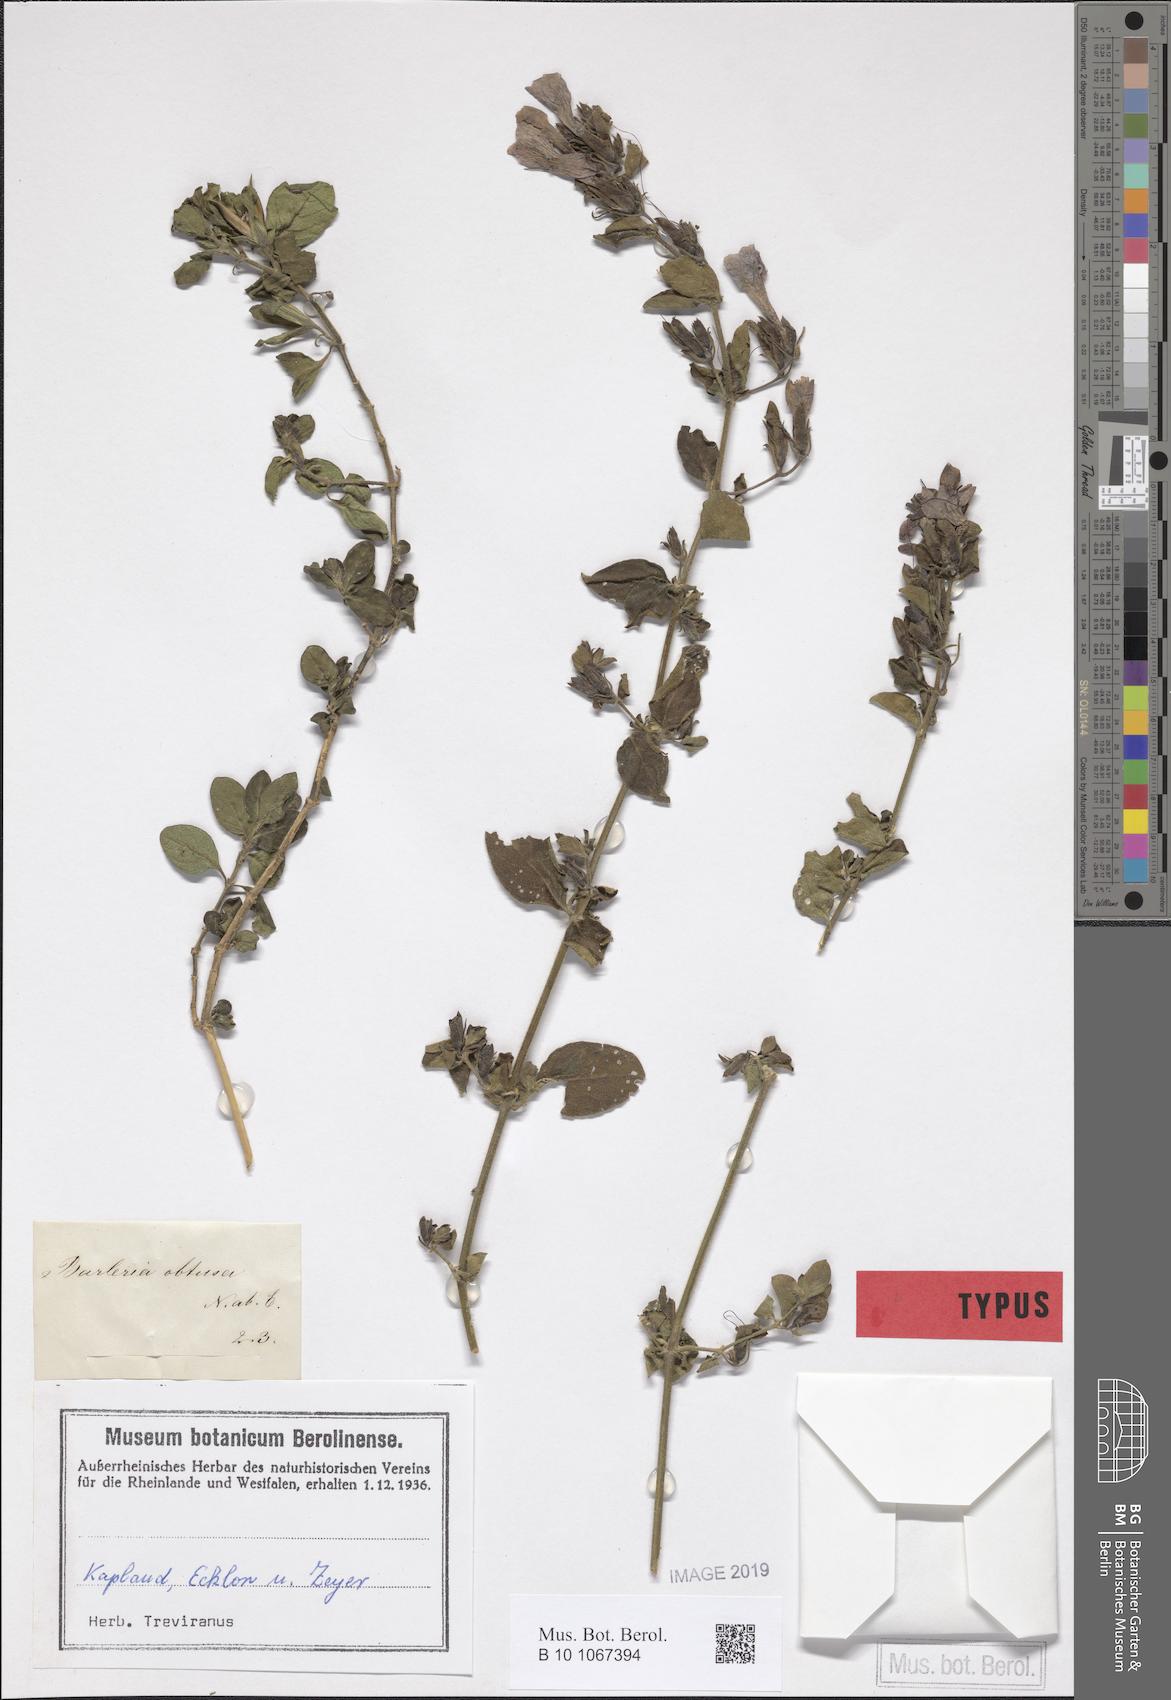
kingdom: Plantae
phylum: Tracheophyta
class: Magnoliopsida
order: Lamiales
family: Acanthaceae
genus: Barleria
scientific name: Barleria obtusa
